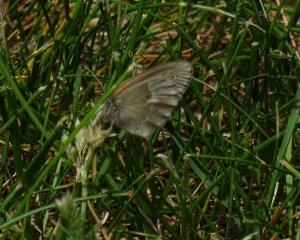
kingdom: Animalia
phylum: Arthropoda
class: Insecta
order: Lepidoptera
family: Nymphalidae
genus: Coenonympha
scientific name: Coenonympha tullia
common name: Large Heath
